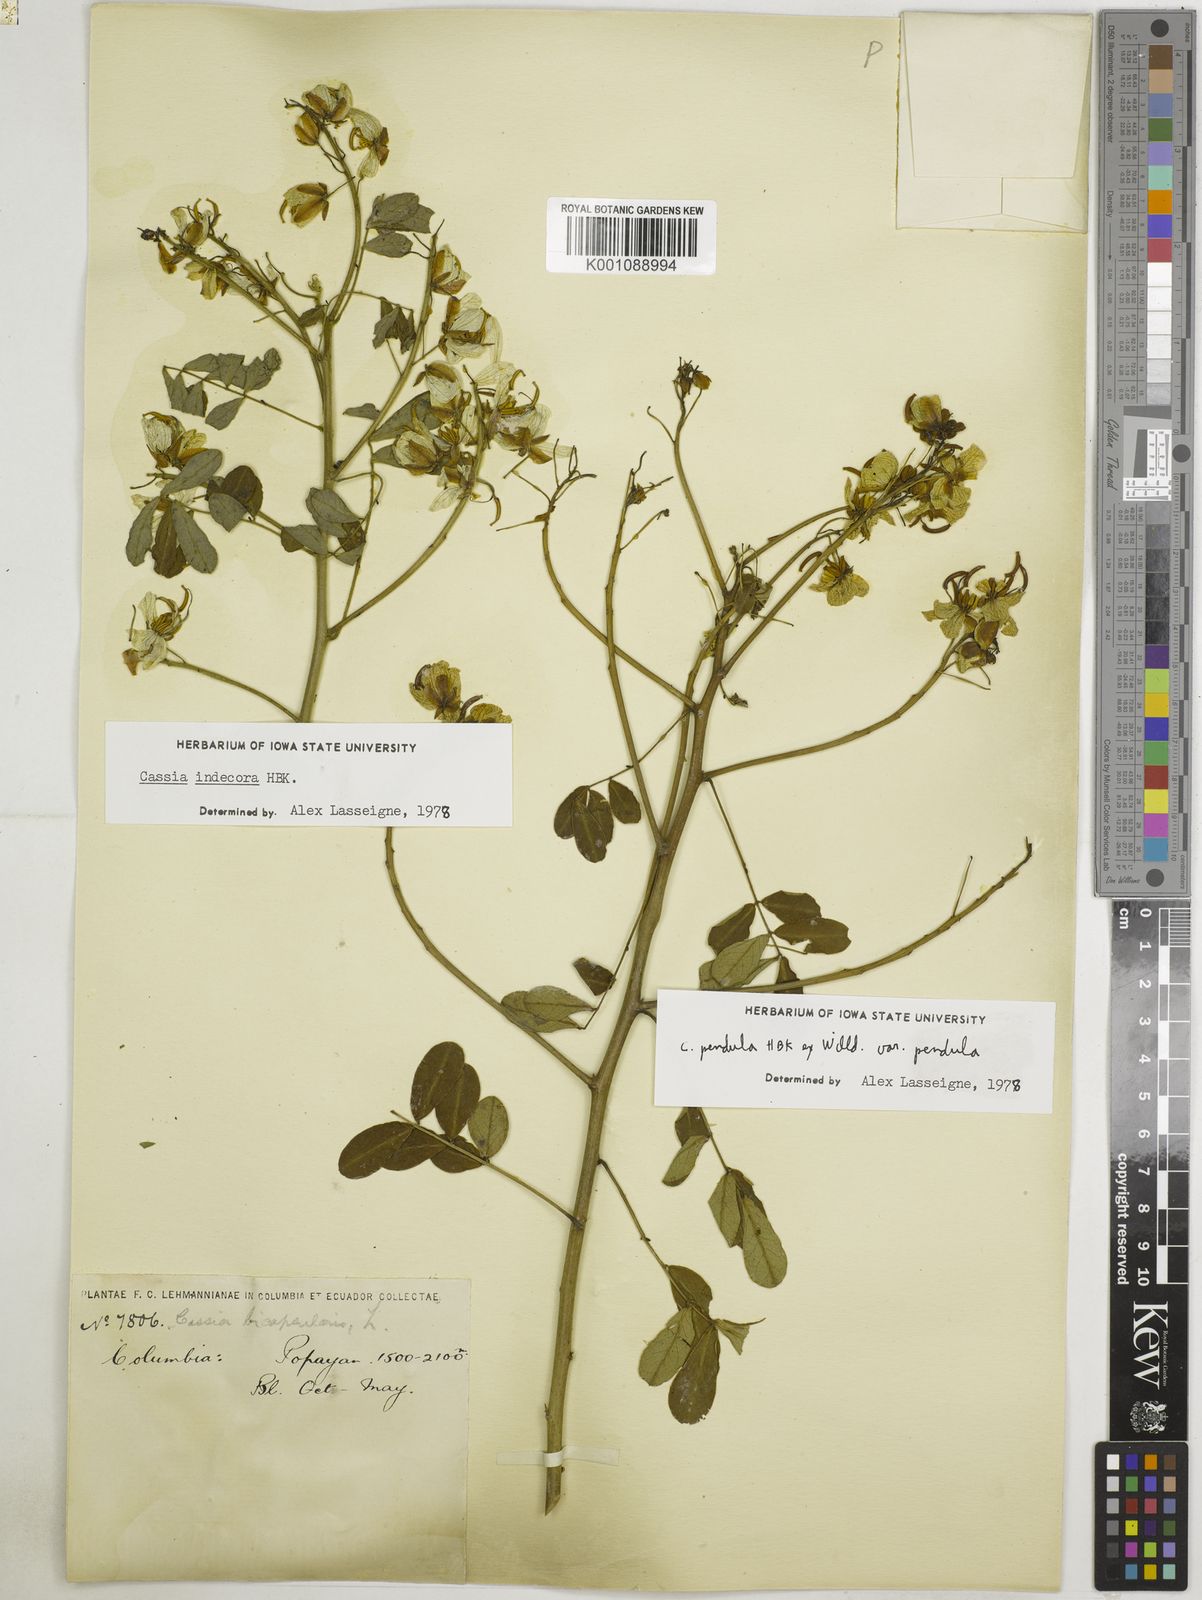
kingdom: Plantae
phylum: Tracheophyta
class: Magnoliopsida
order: Fabales
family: Fabaceae
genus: Senna
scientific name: Senna pendula
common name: Easter cassia
